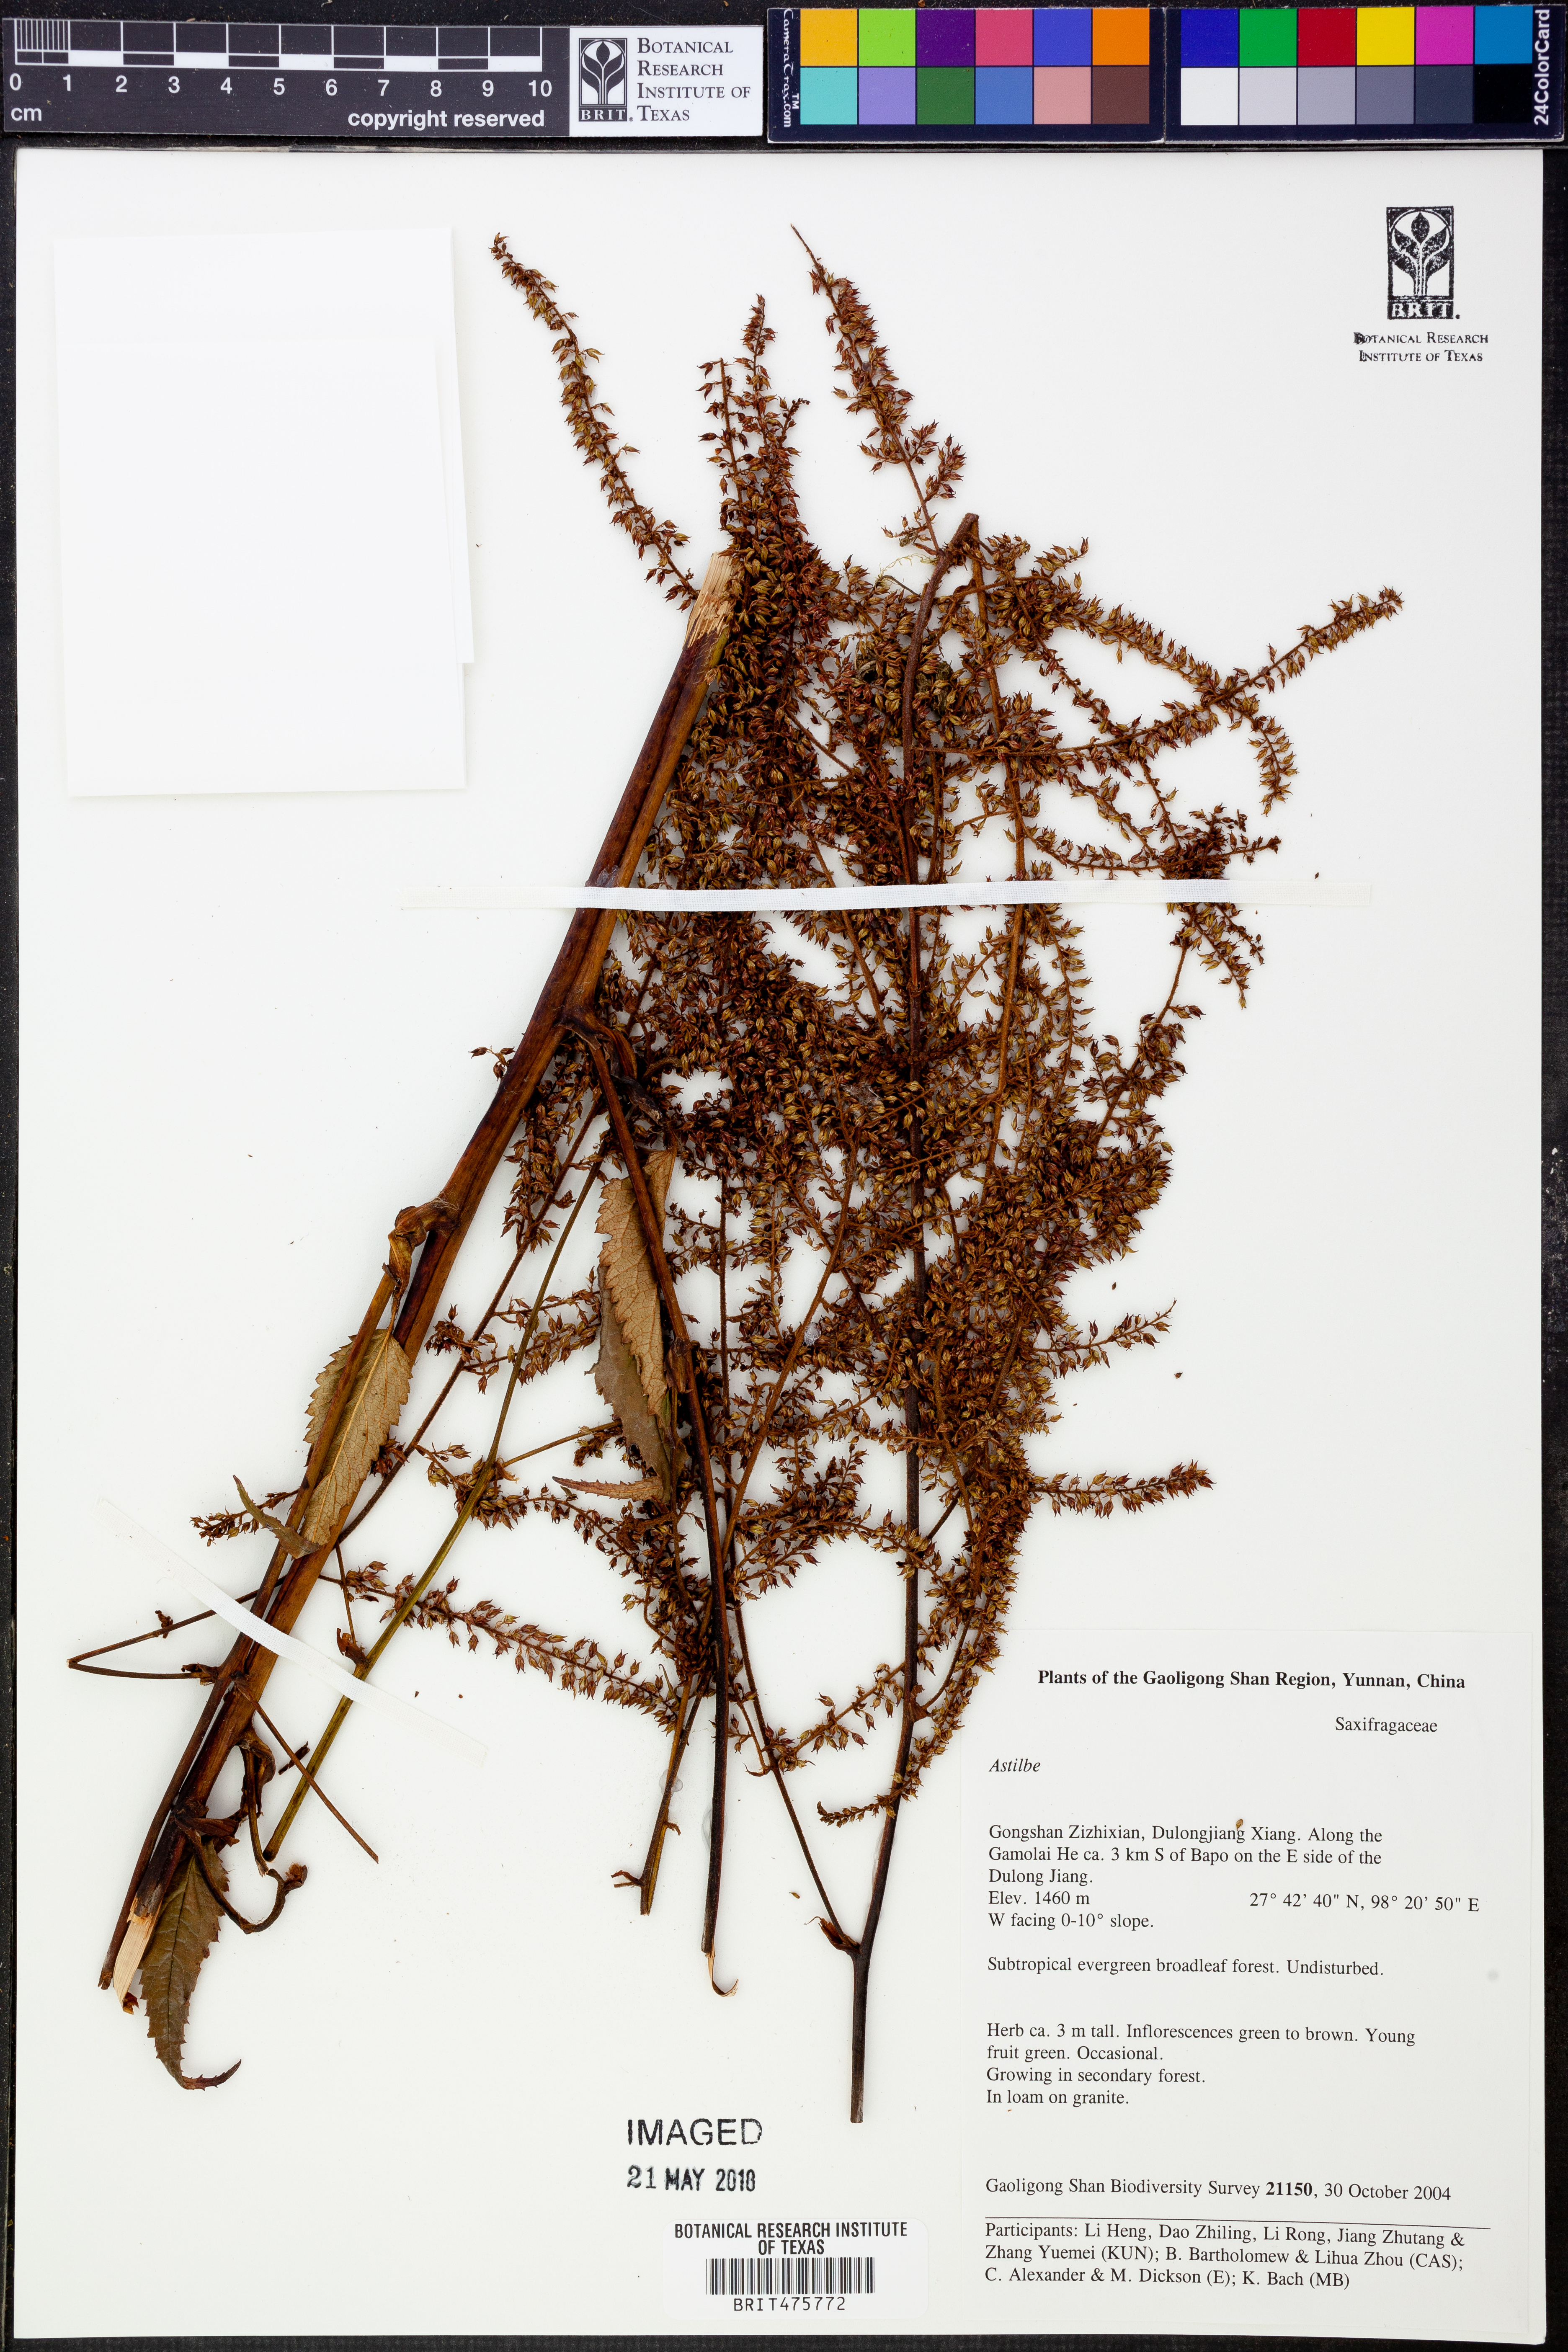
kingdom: Plantae
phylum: Tracheophyta
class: Magnoliopsida
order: Saxifragales
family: Saxifragaceae
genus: Astilbe
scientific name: Astilbe
